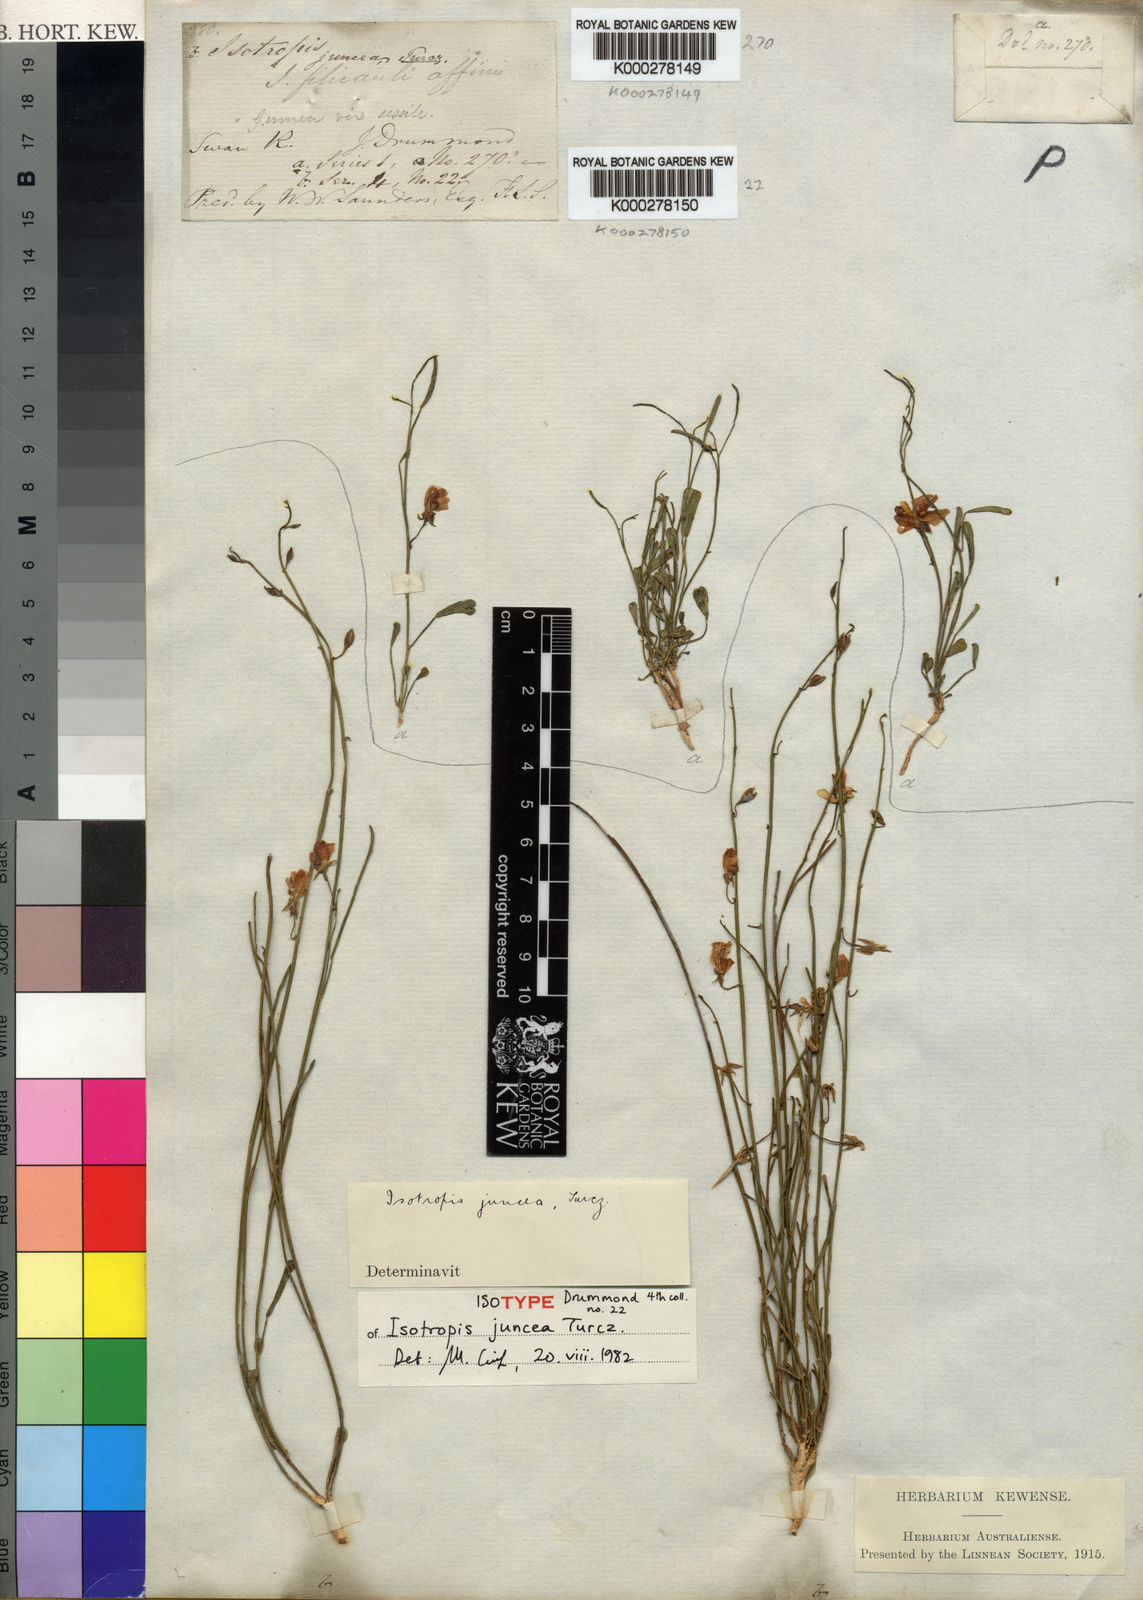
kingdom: Plantae
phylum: Tracheophyta
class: Magnoliopsida
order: Fabales
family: Fabaceae
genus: Isotropis
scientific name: Isotropis juncea
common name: Slender lamb-poison
